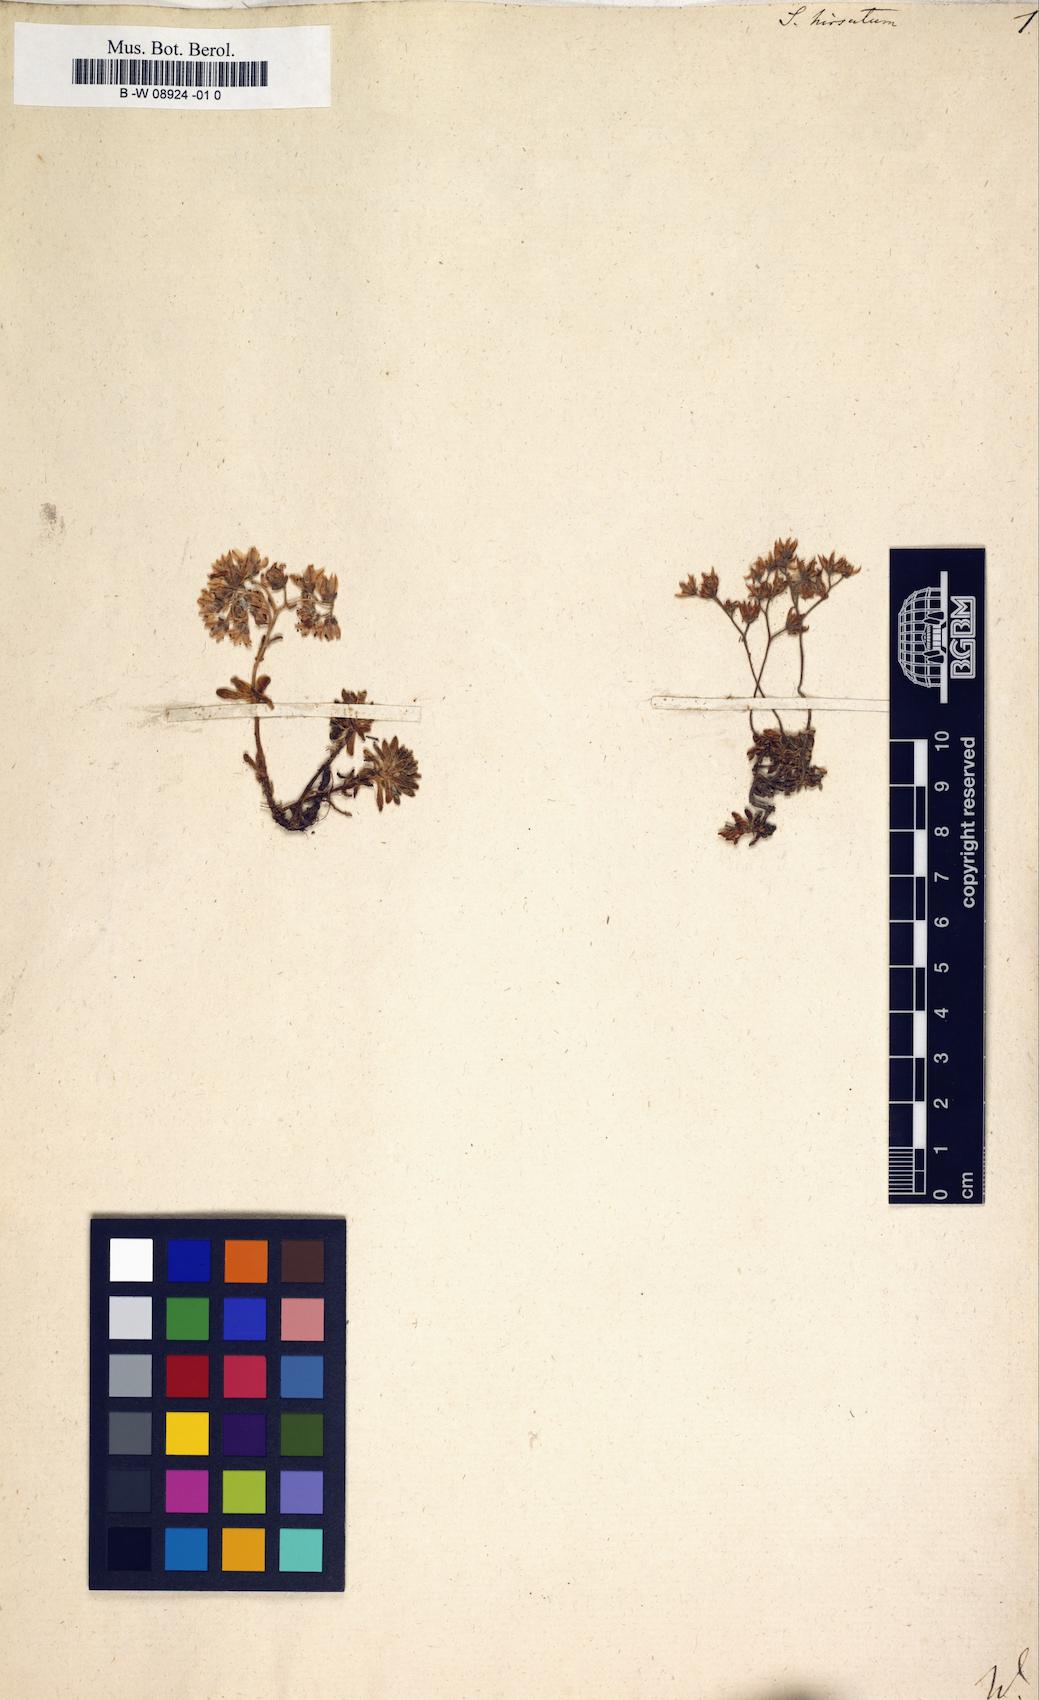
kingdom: Plantae
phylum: Tracheophyta
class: Magnoliopsida
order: Saxifragales
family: Crassulaceae
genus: Sedum
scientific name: Sedum hirsutum
